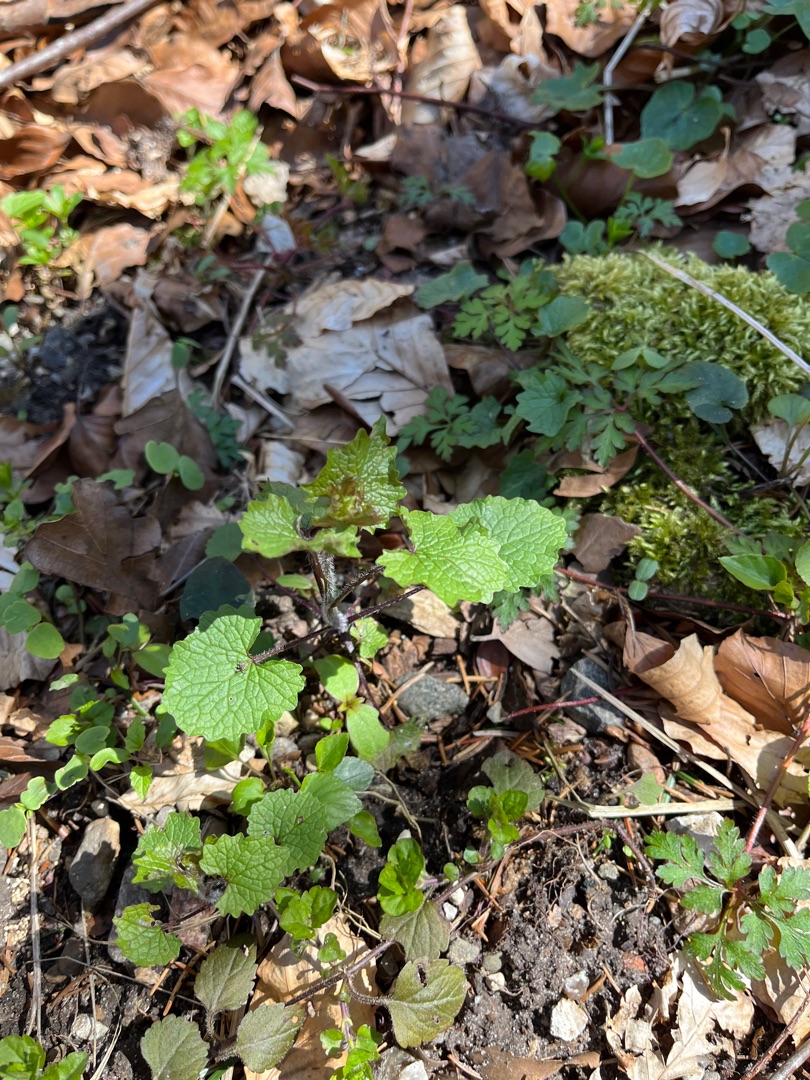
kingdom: Plantae
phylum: Tracheophyta
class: Magnoliopsida
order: Brassicales
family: Brassicaceae
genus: Alliaria
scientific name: Alliaria petiolata
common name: Løgkarse
